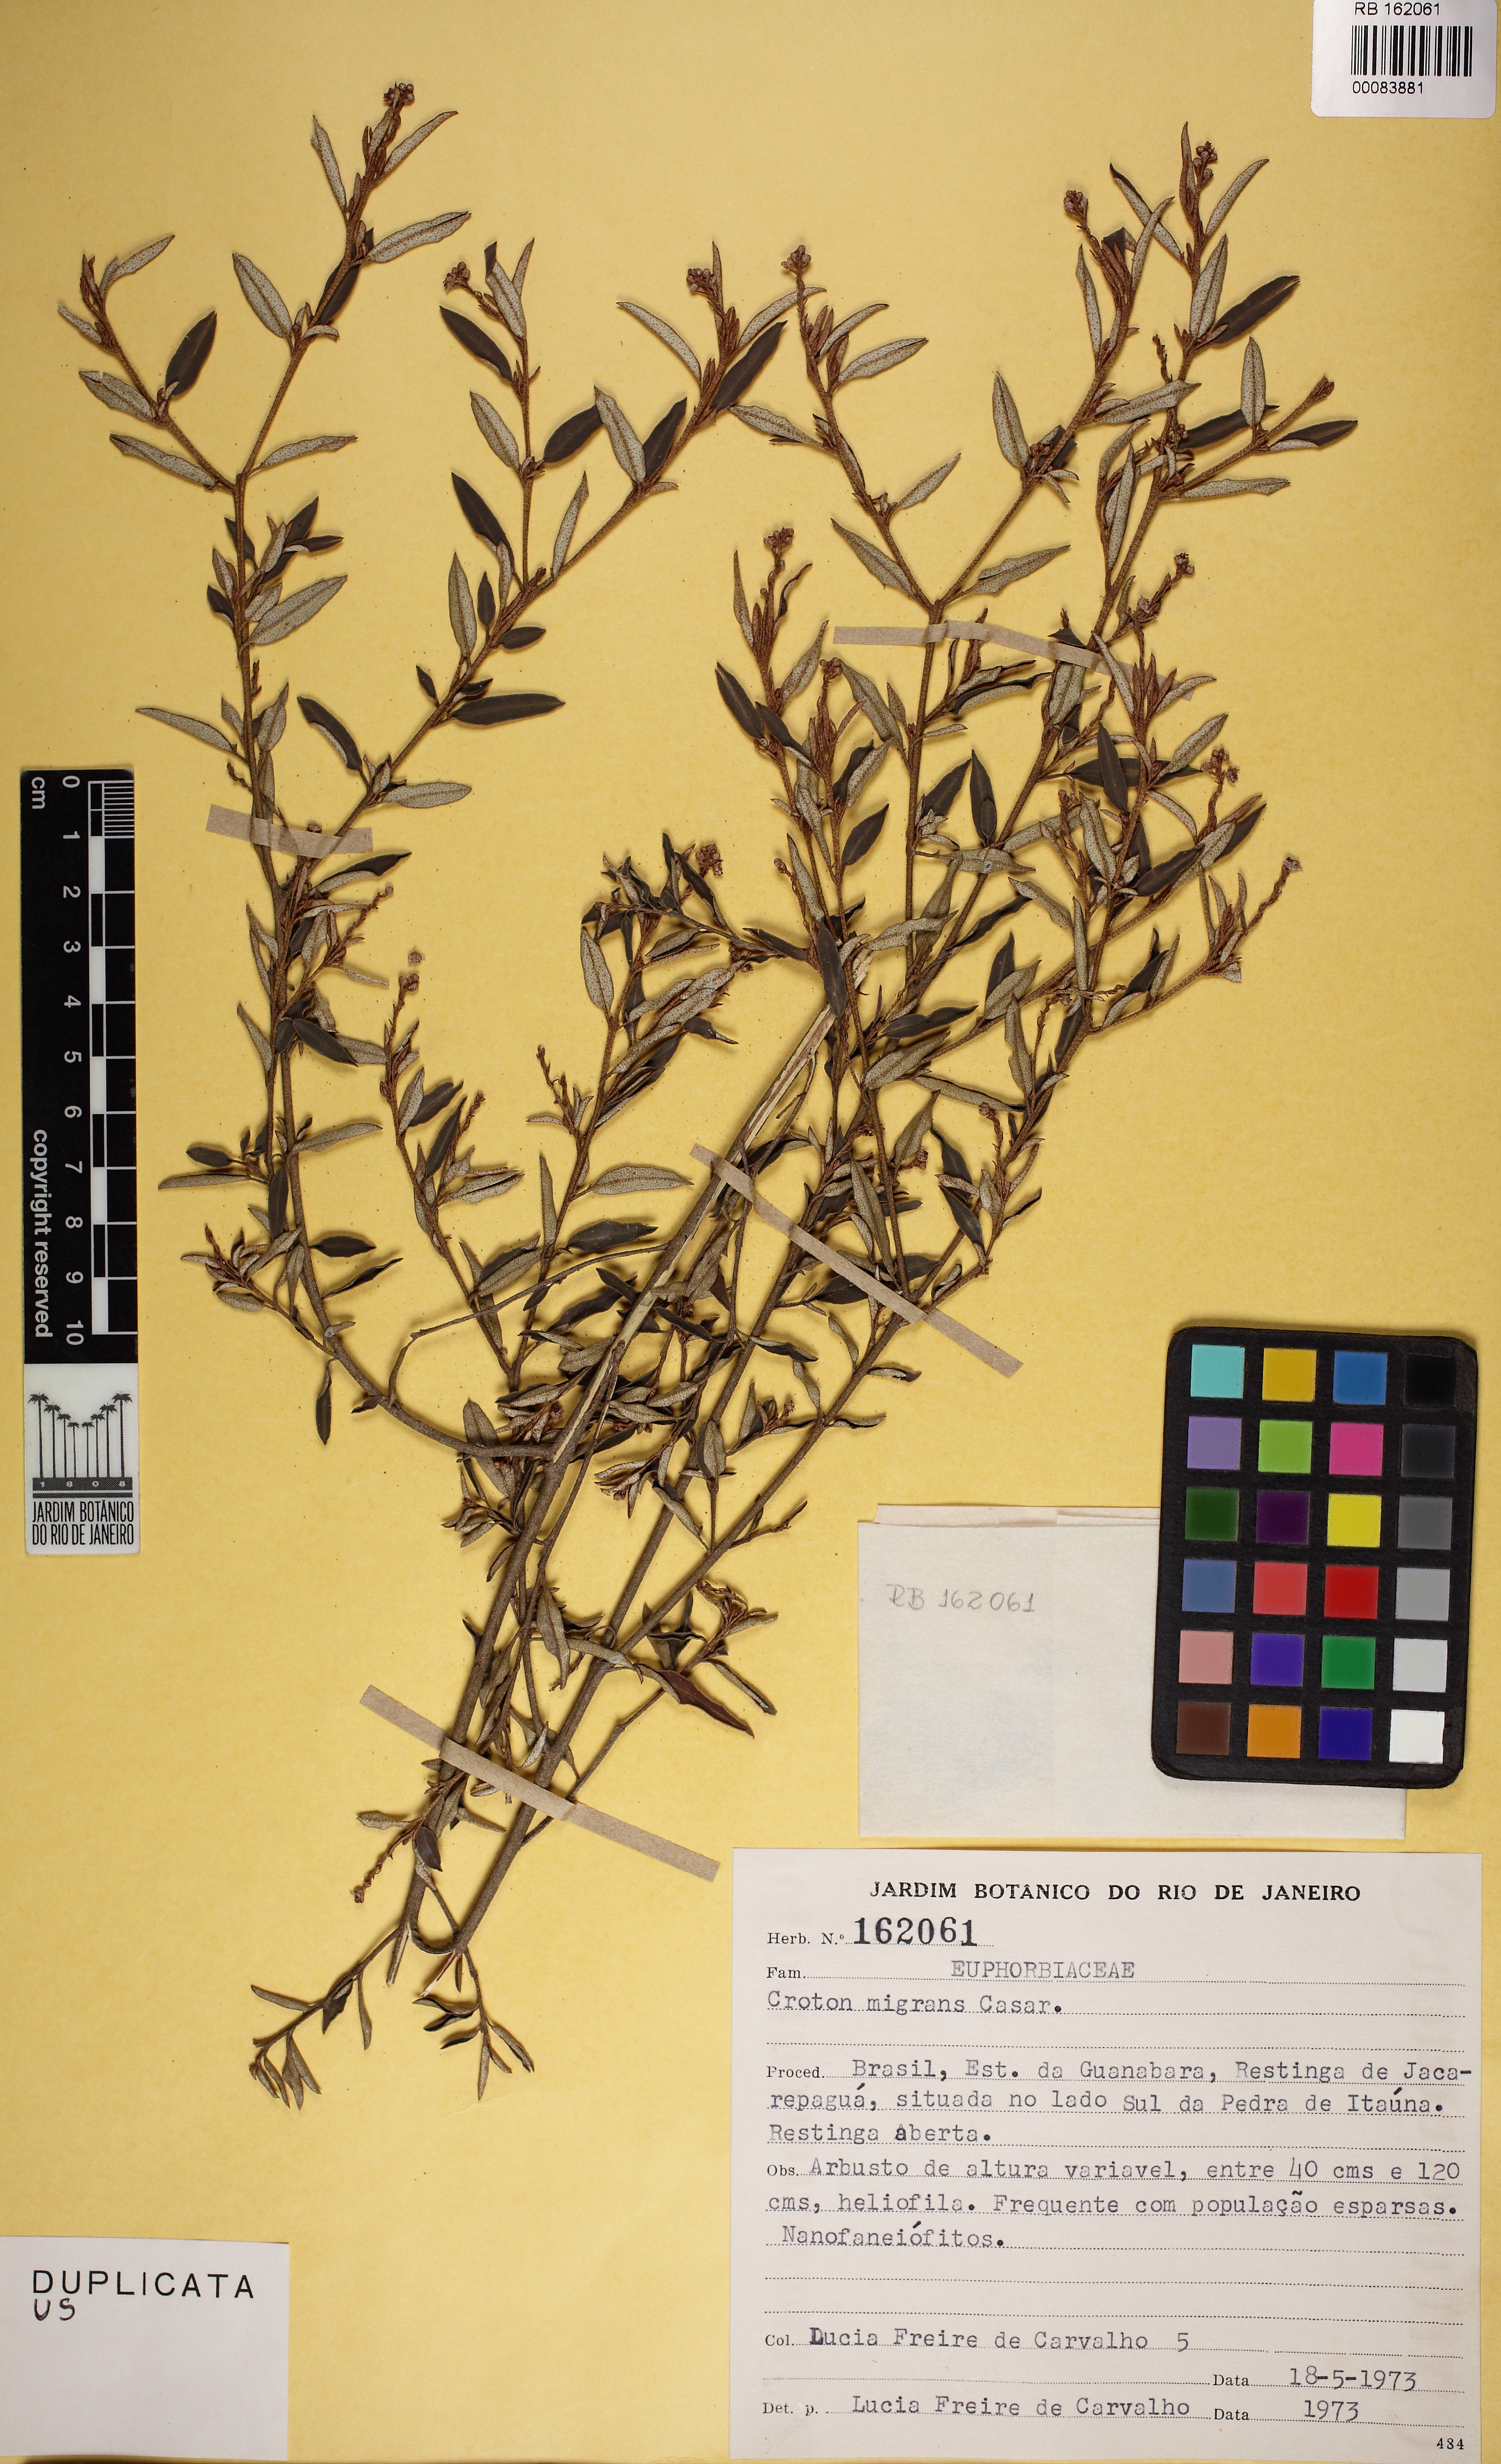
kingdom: Plantae
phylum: Tracheophyta
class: Magnoliopsida
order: Malpighiales
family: Euphorbiaceae
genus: Croton
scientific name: Croton splendidus
